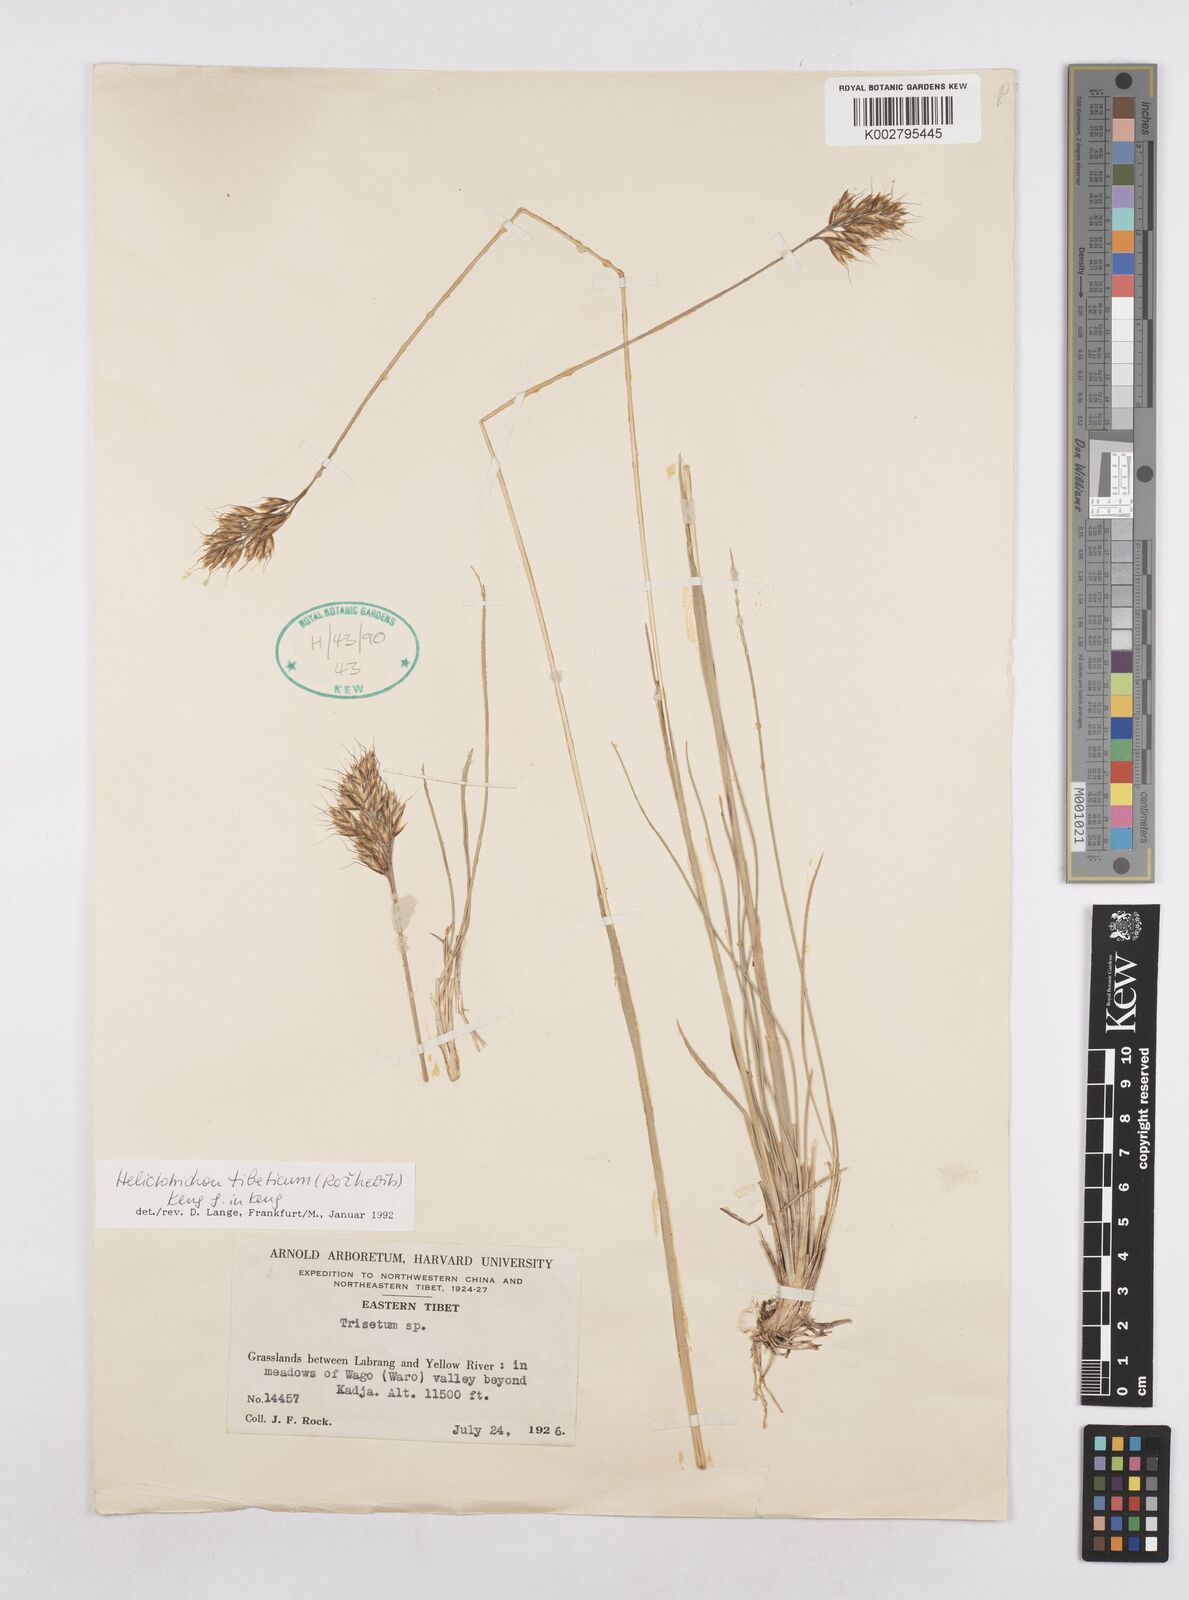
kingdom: Plantae
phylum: Tracheophyta
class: Liliopsida
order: Poales
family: Poaceae
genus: Helictotrichon
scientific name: Helictotrichon tibeticum
